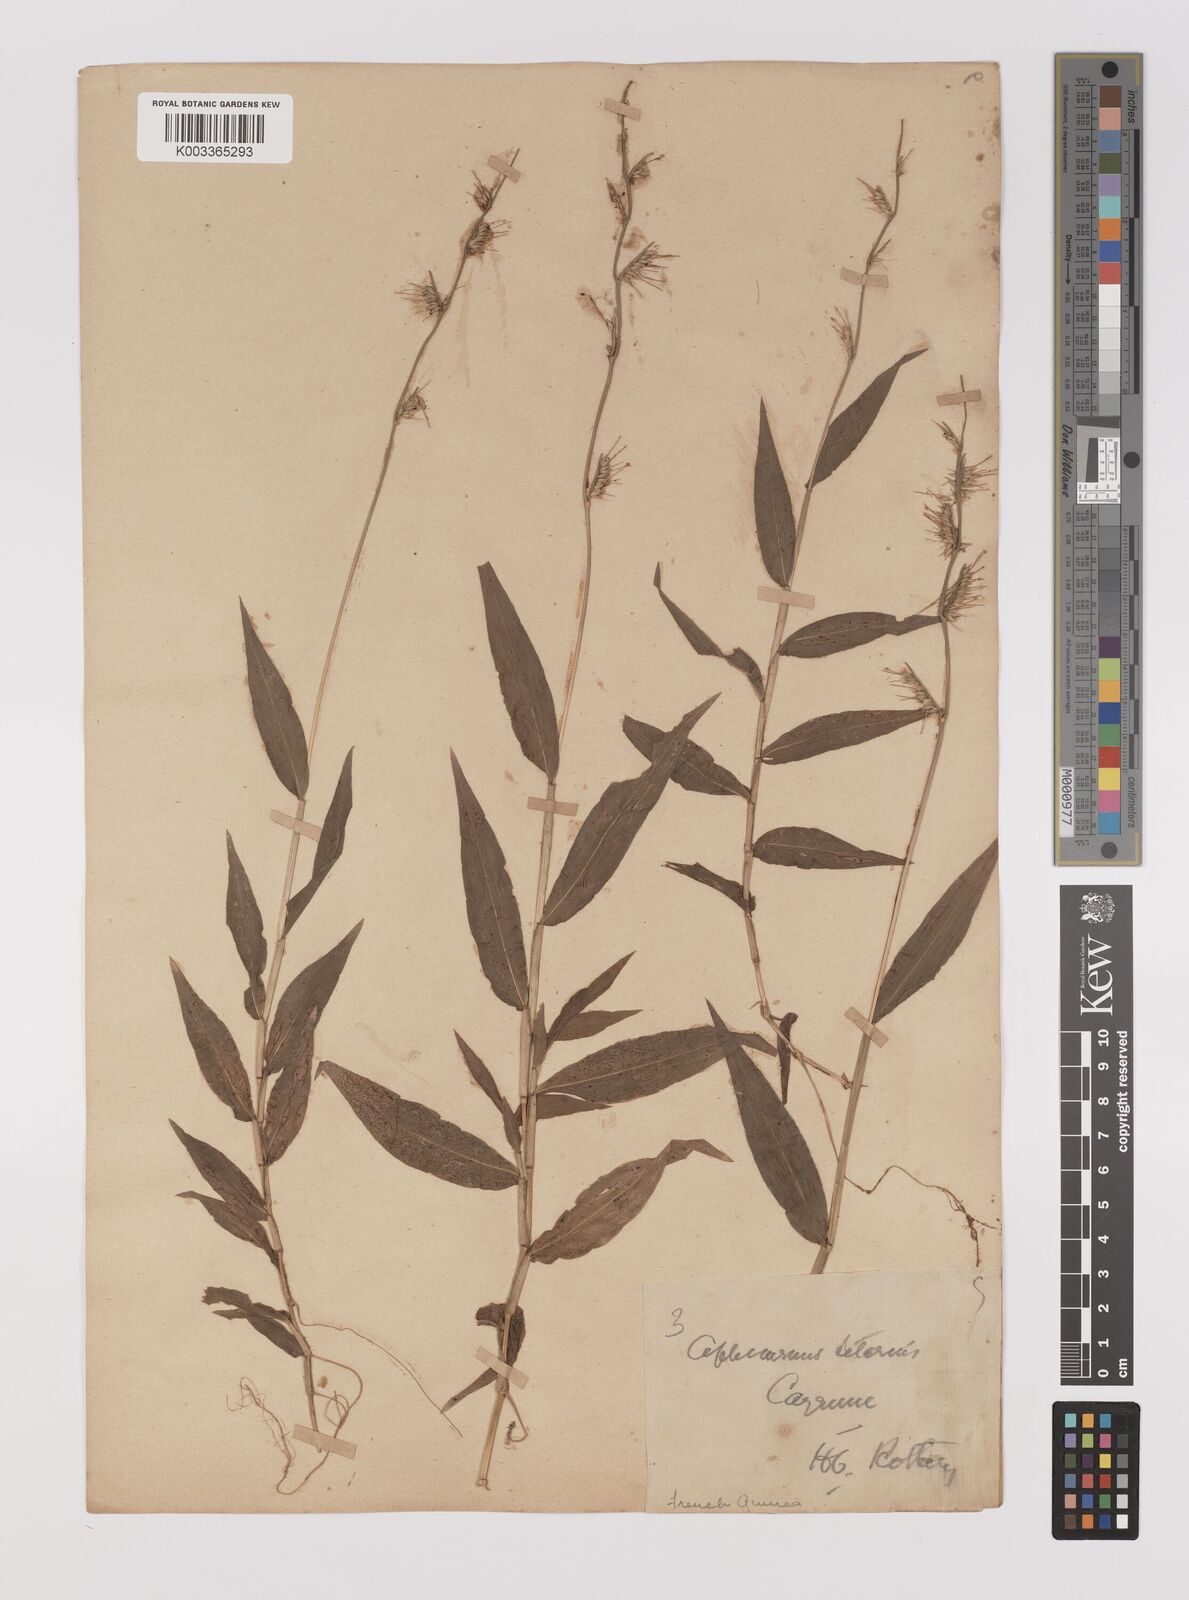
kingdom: Plantae
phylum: Tracheophyta
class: Liliopsida
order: Poales
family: Poaceae
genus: Oplismenus
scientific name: Oplismenus hirtellus
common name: Basketgrass
